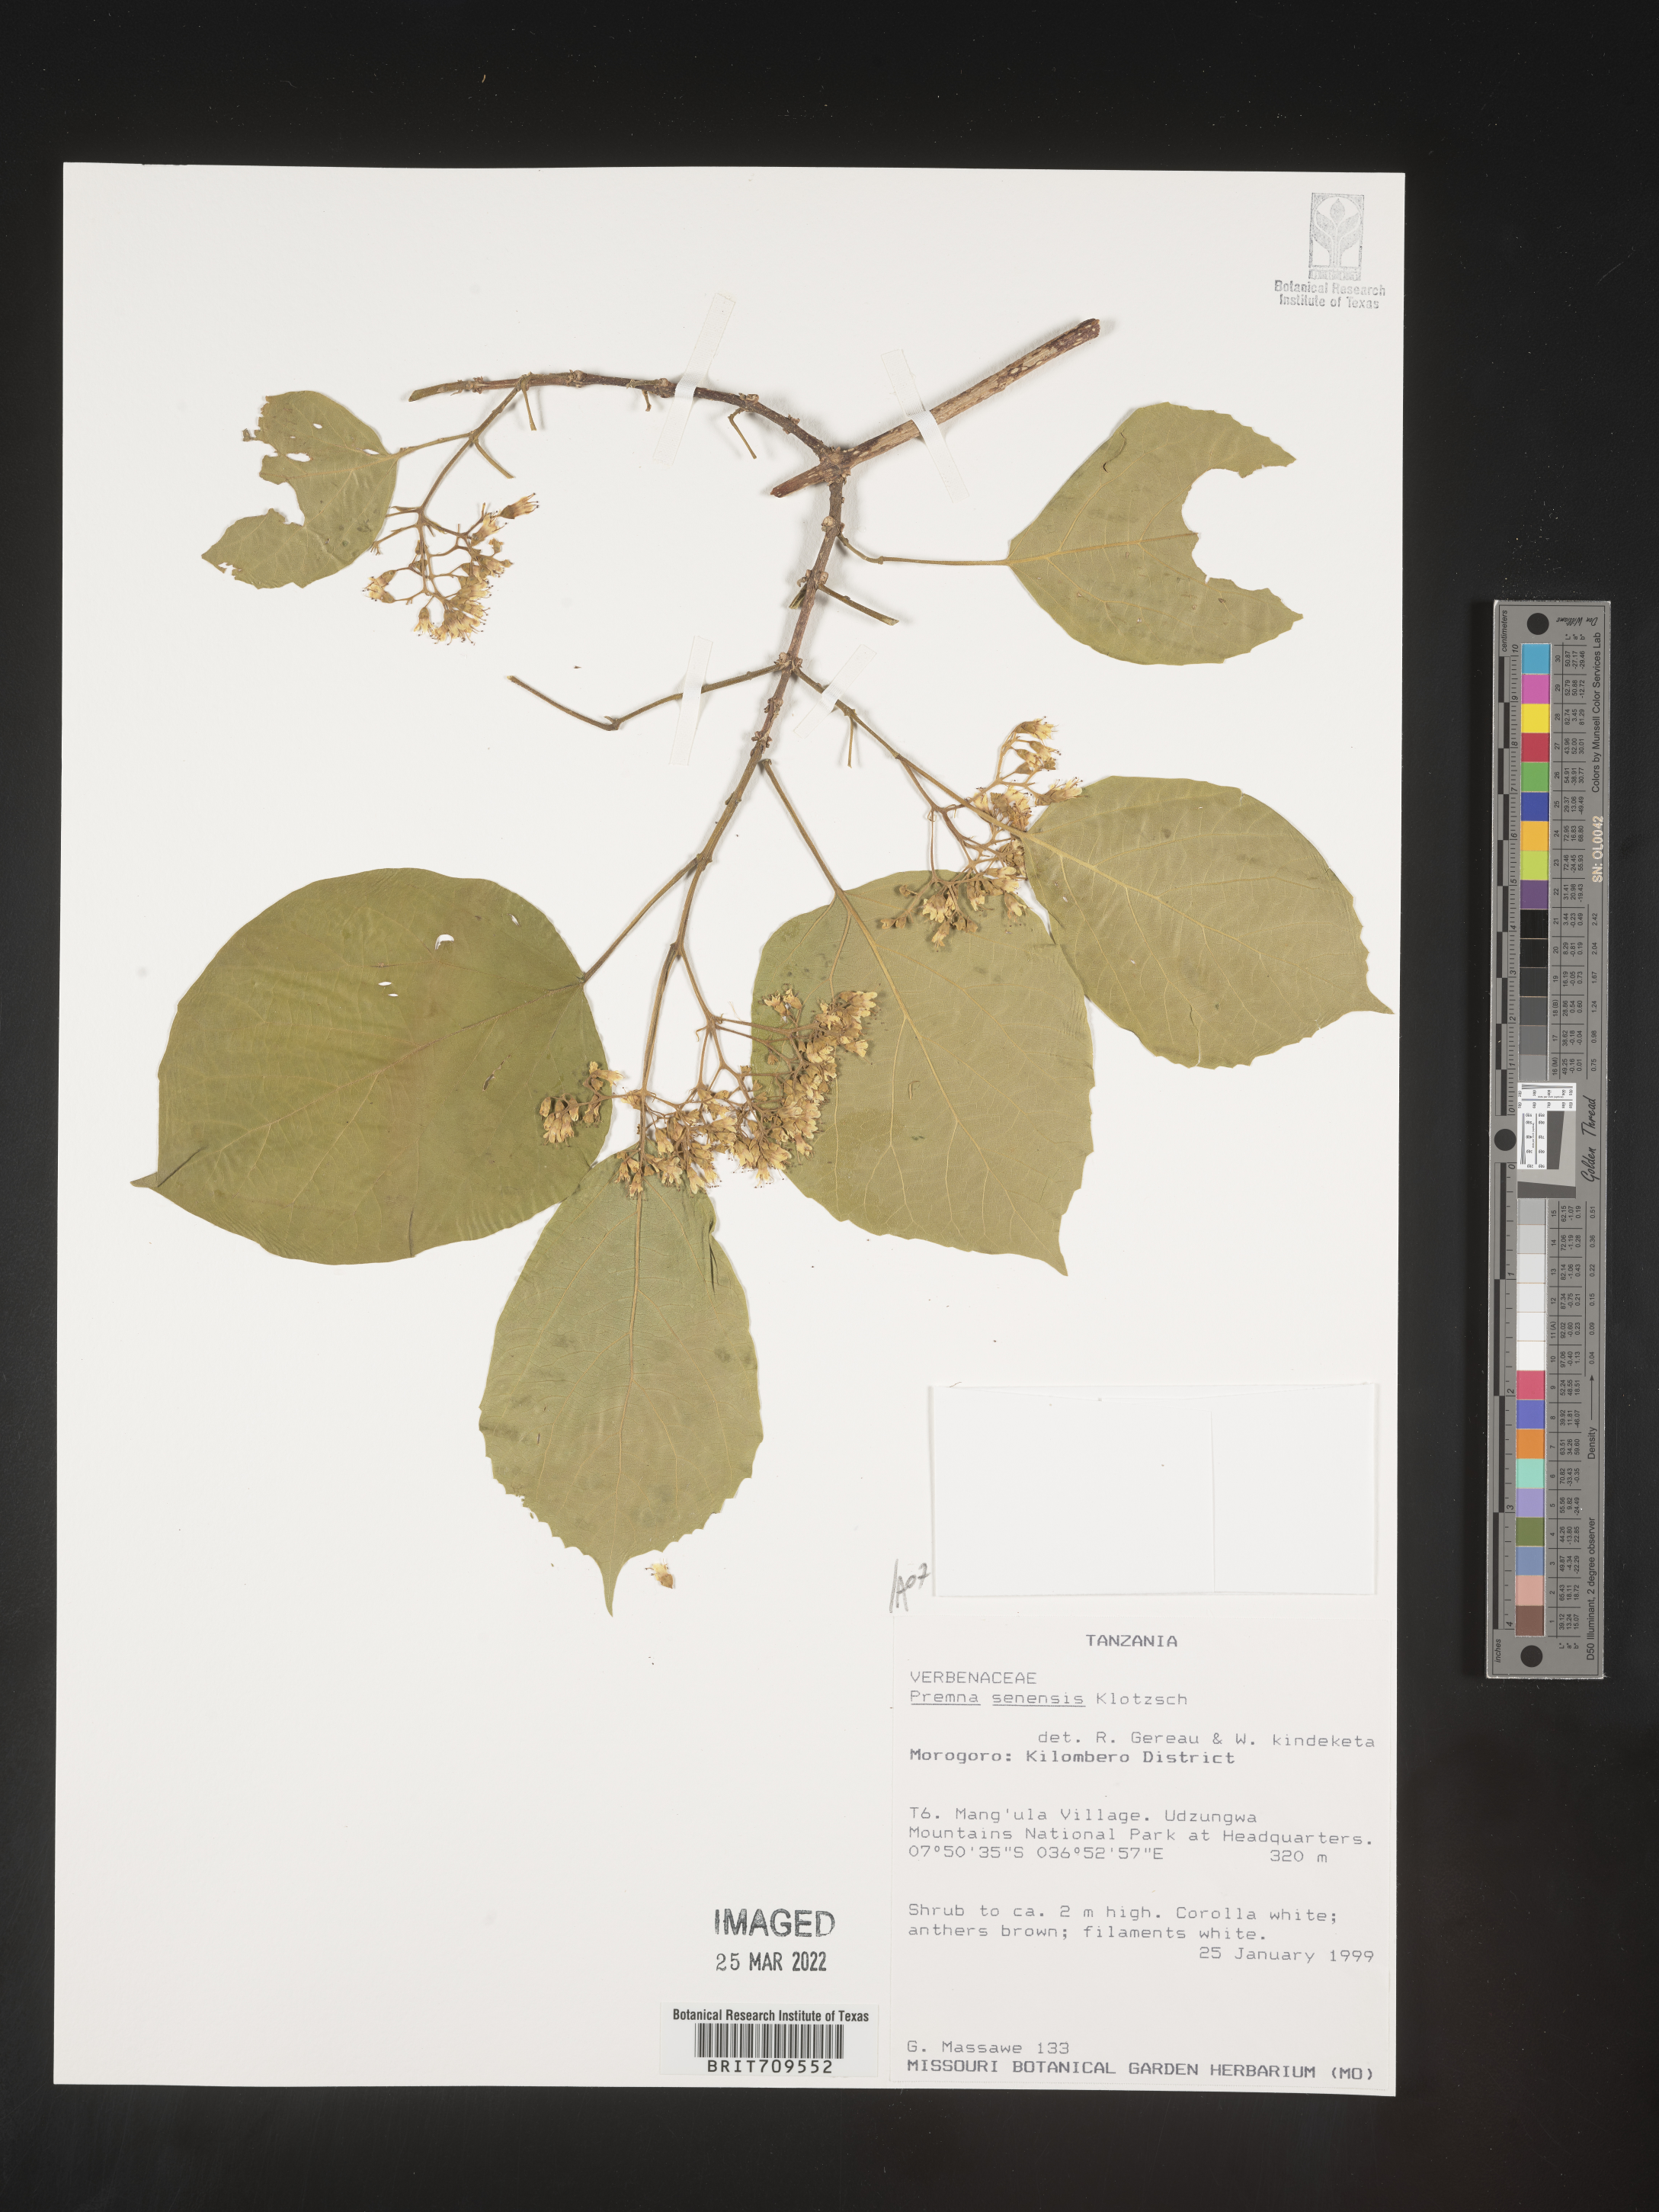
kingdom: Plantae
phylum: Tracheophyta
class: Magnoliopsida
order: Lamiales
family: Lamiaceae
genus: Premna
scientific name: Premna
